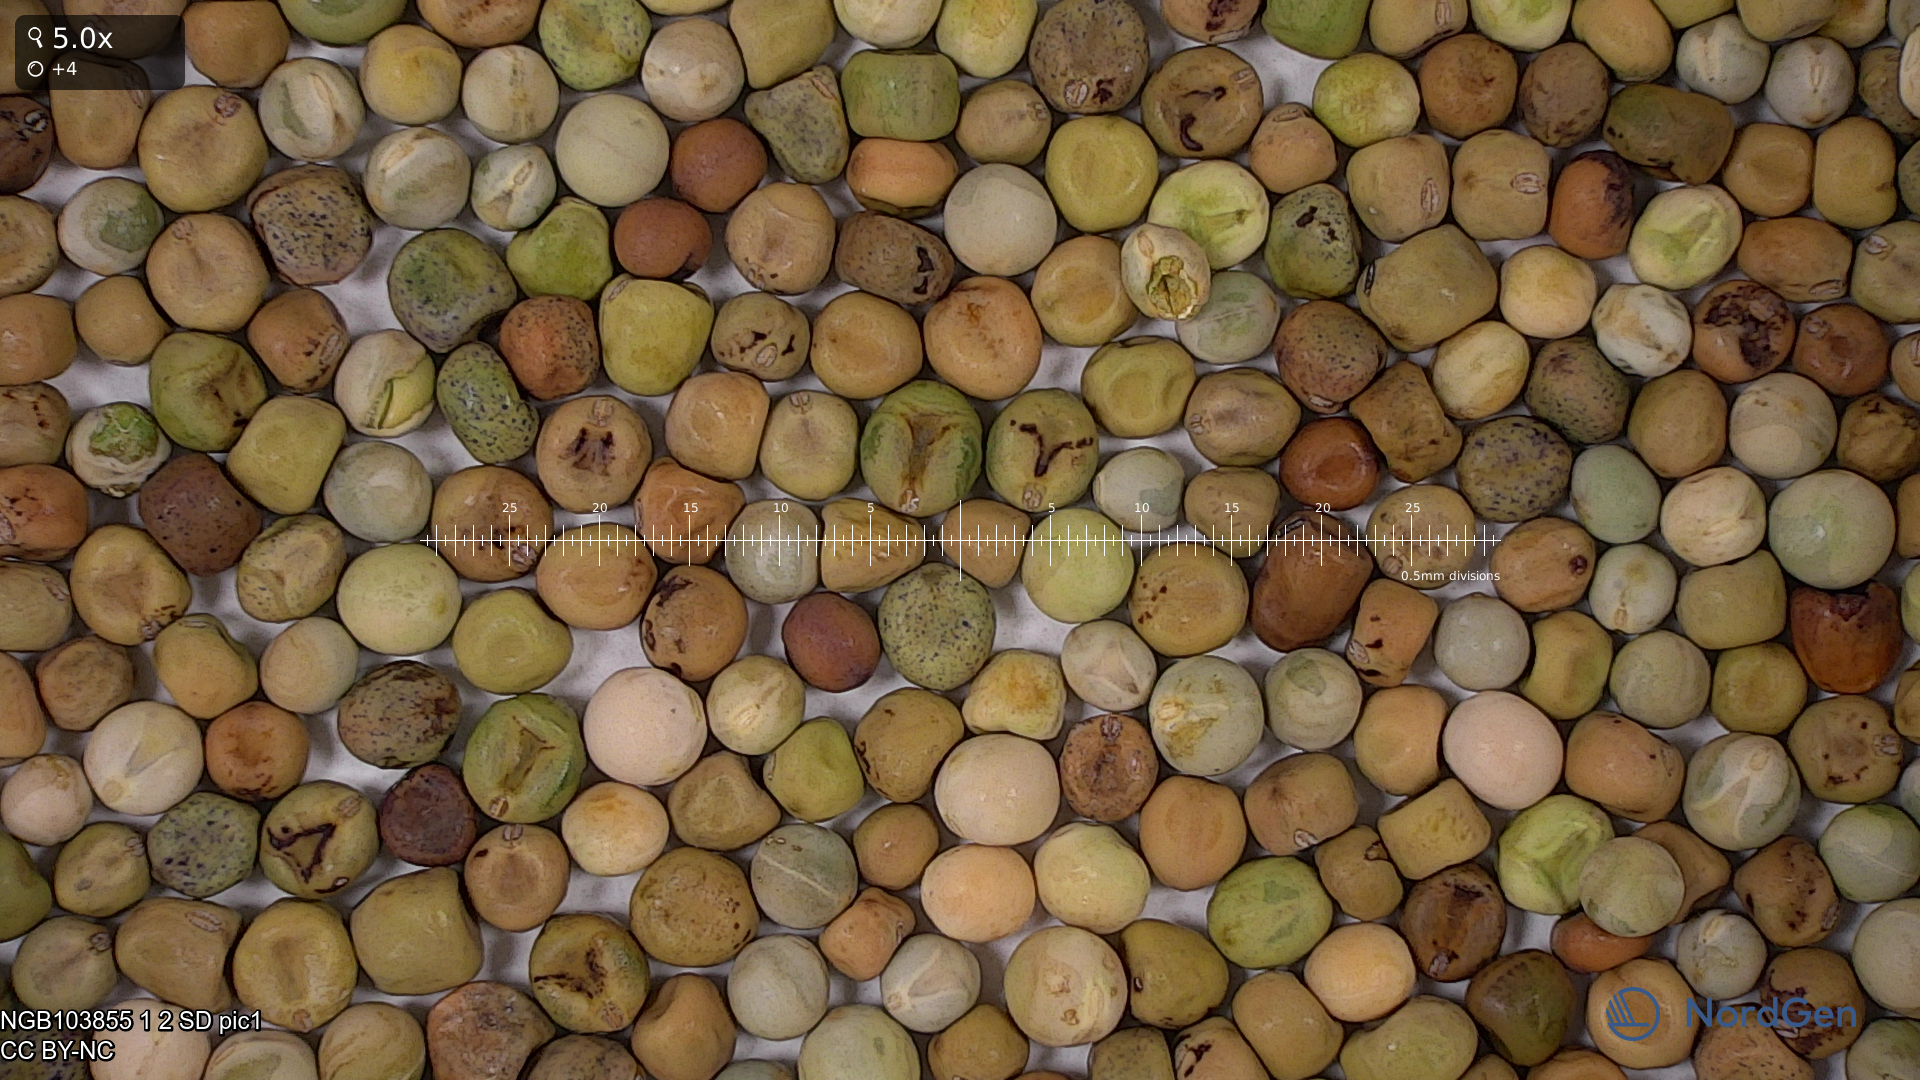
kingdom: Plantae
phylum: Tracheophyta
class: Magnoliopsida
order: Fabales
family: Fabaceae
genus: Lathyrus
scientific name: Lathyrus oleraceus
